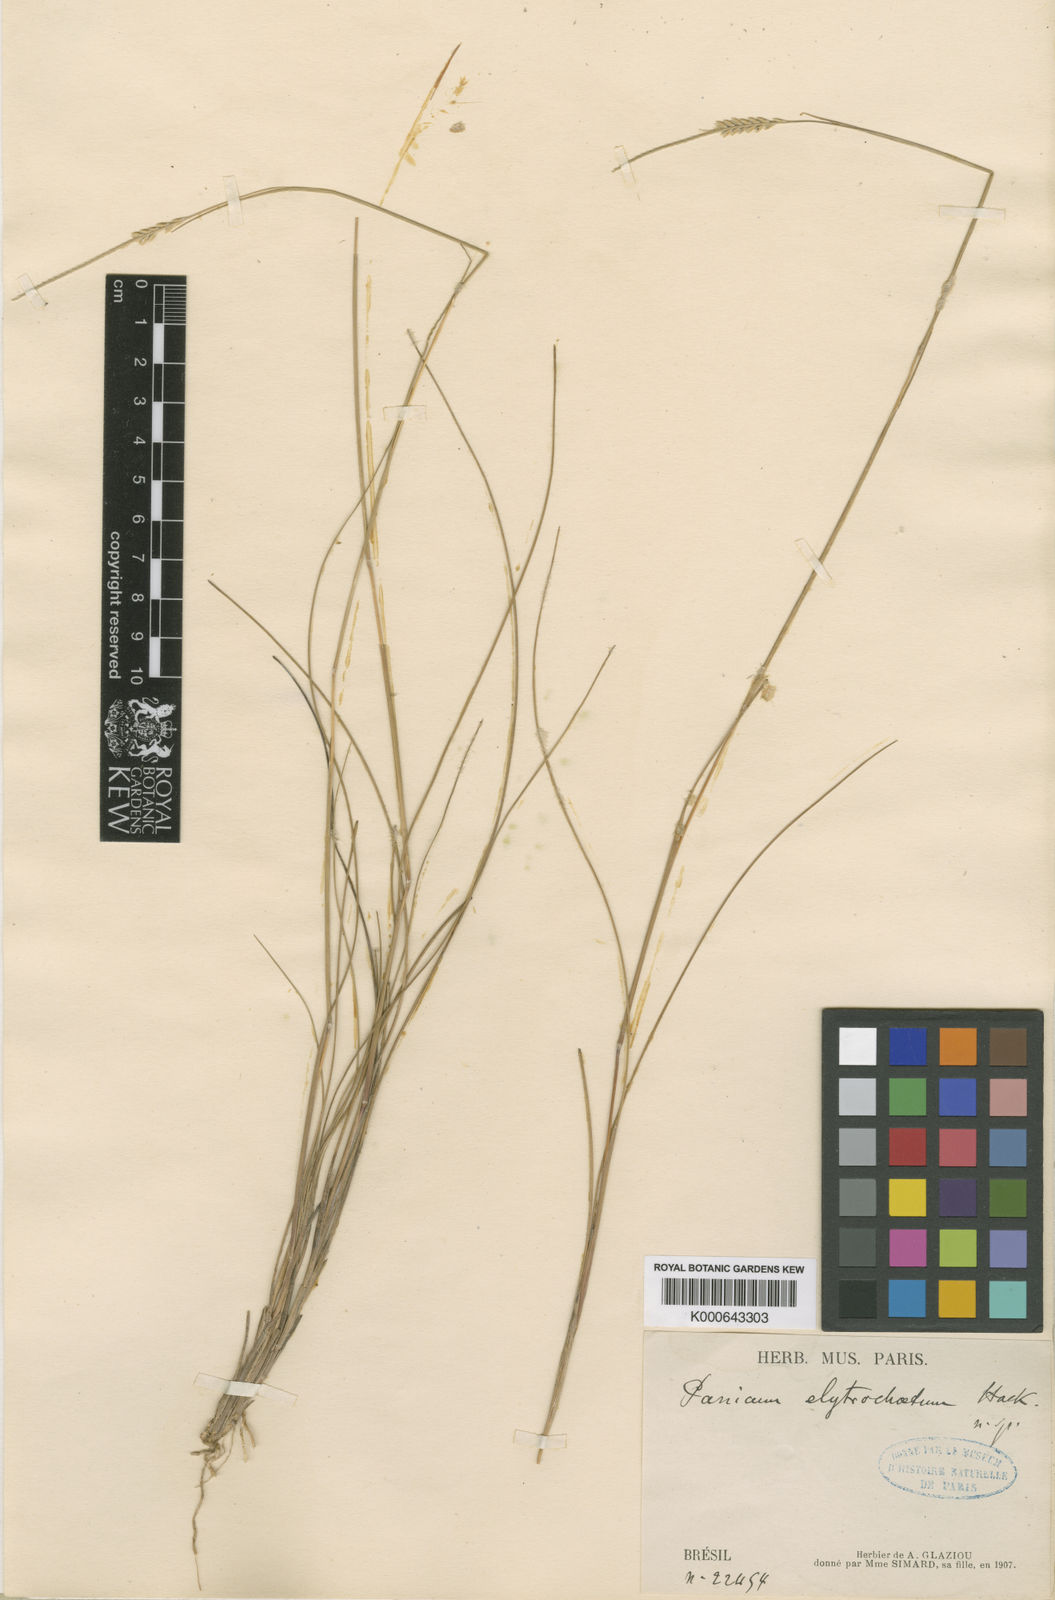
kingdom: Plantae
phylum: Tracheophyta
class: Liliopsida
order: Poales
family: Poaceae
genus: Mesosetum
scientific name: Mesosetum elytrochaetum
